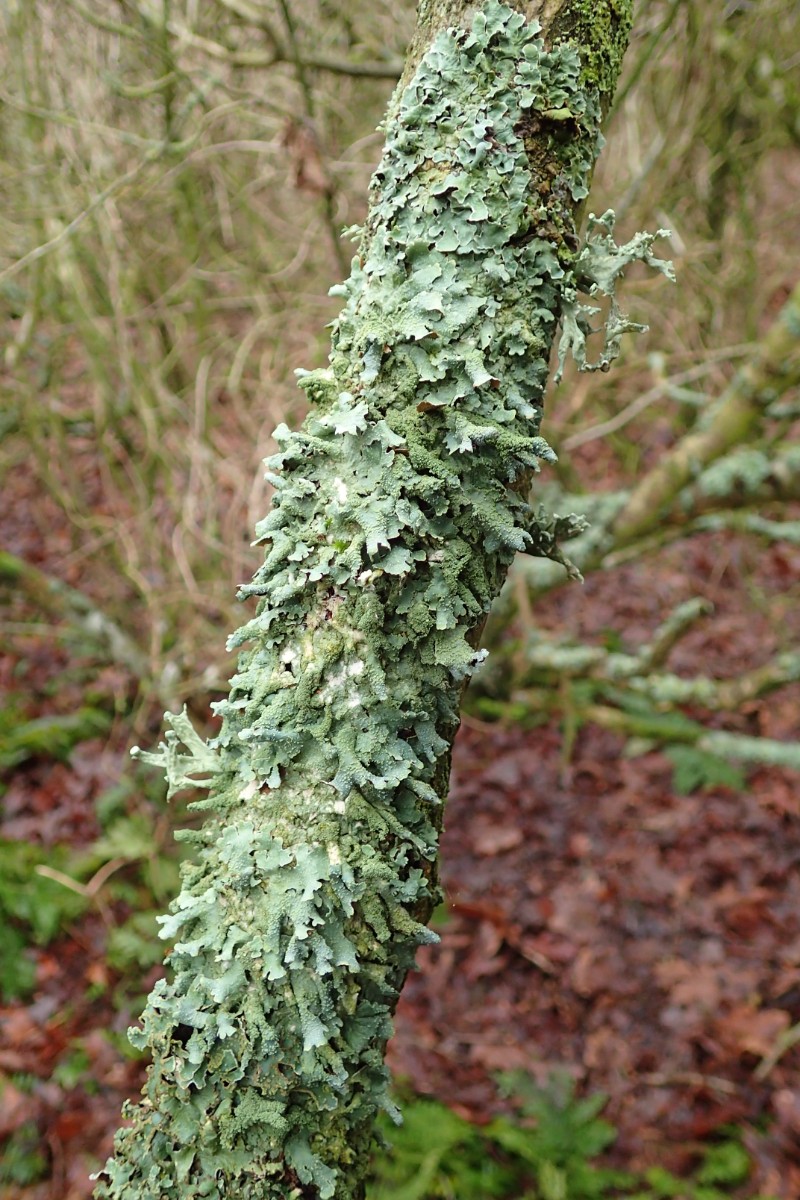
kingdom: Fungi
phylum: Ascomycota
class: Lecanoromycetes
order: Lecanorales
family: Parmeliaceae
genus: Parmelia
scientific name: Parmelia submontana
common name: langlobet skållav
